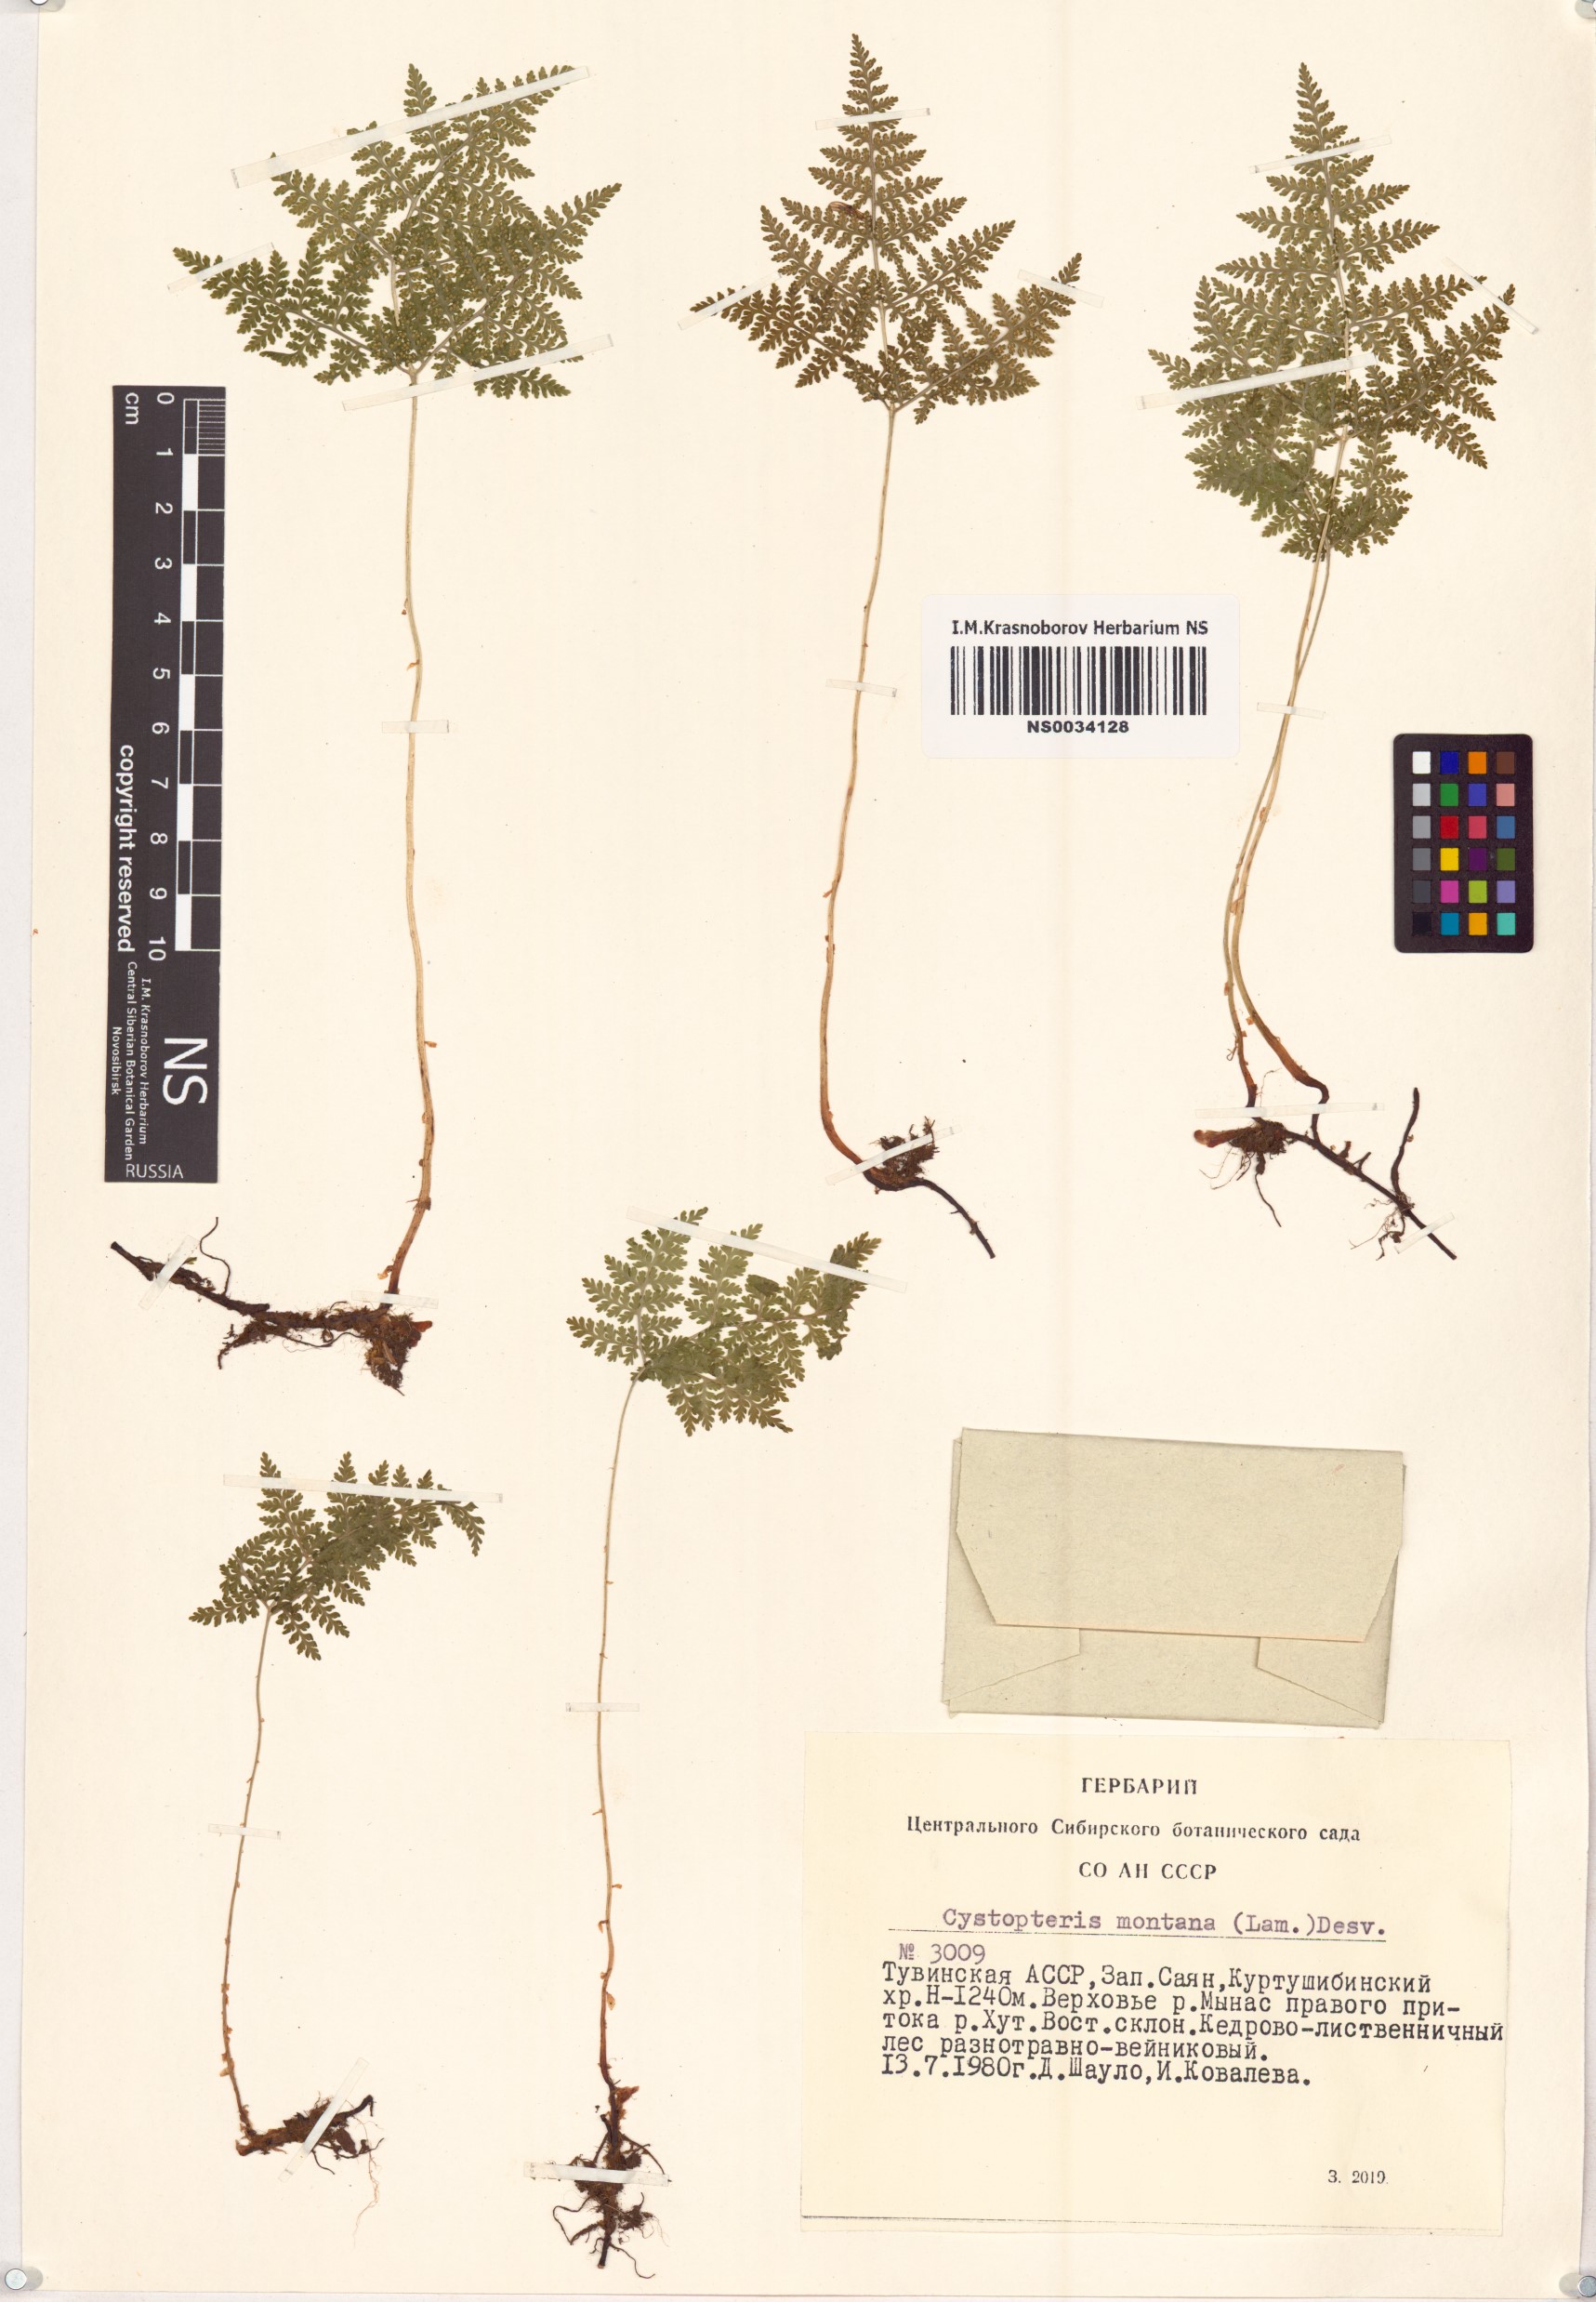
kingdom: Plantae
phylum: Tracheophyta
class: Polypodiopsida
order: Polypodiales
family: Cystopteridaceae
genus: Cystopteris
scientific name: Cystopteris montana
